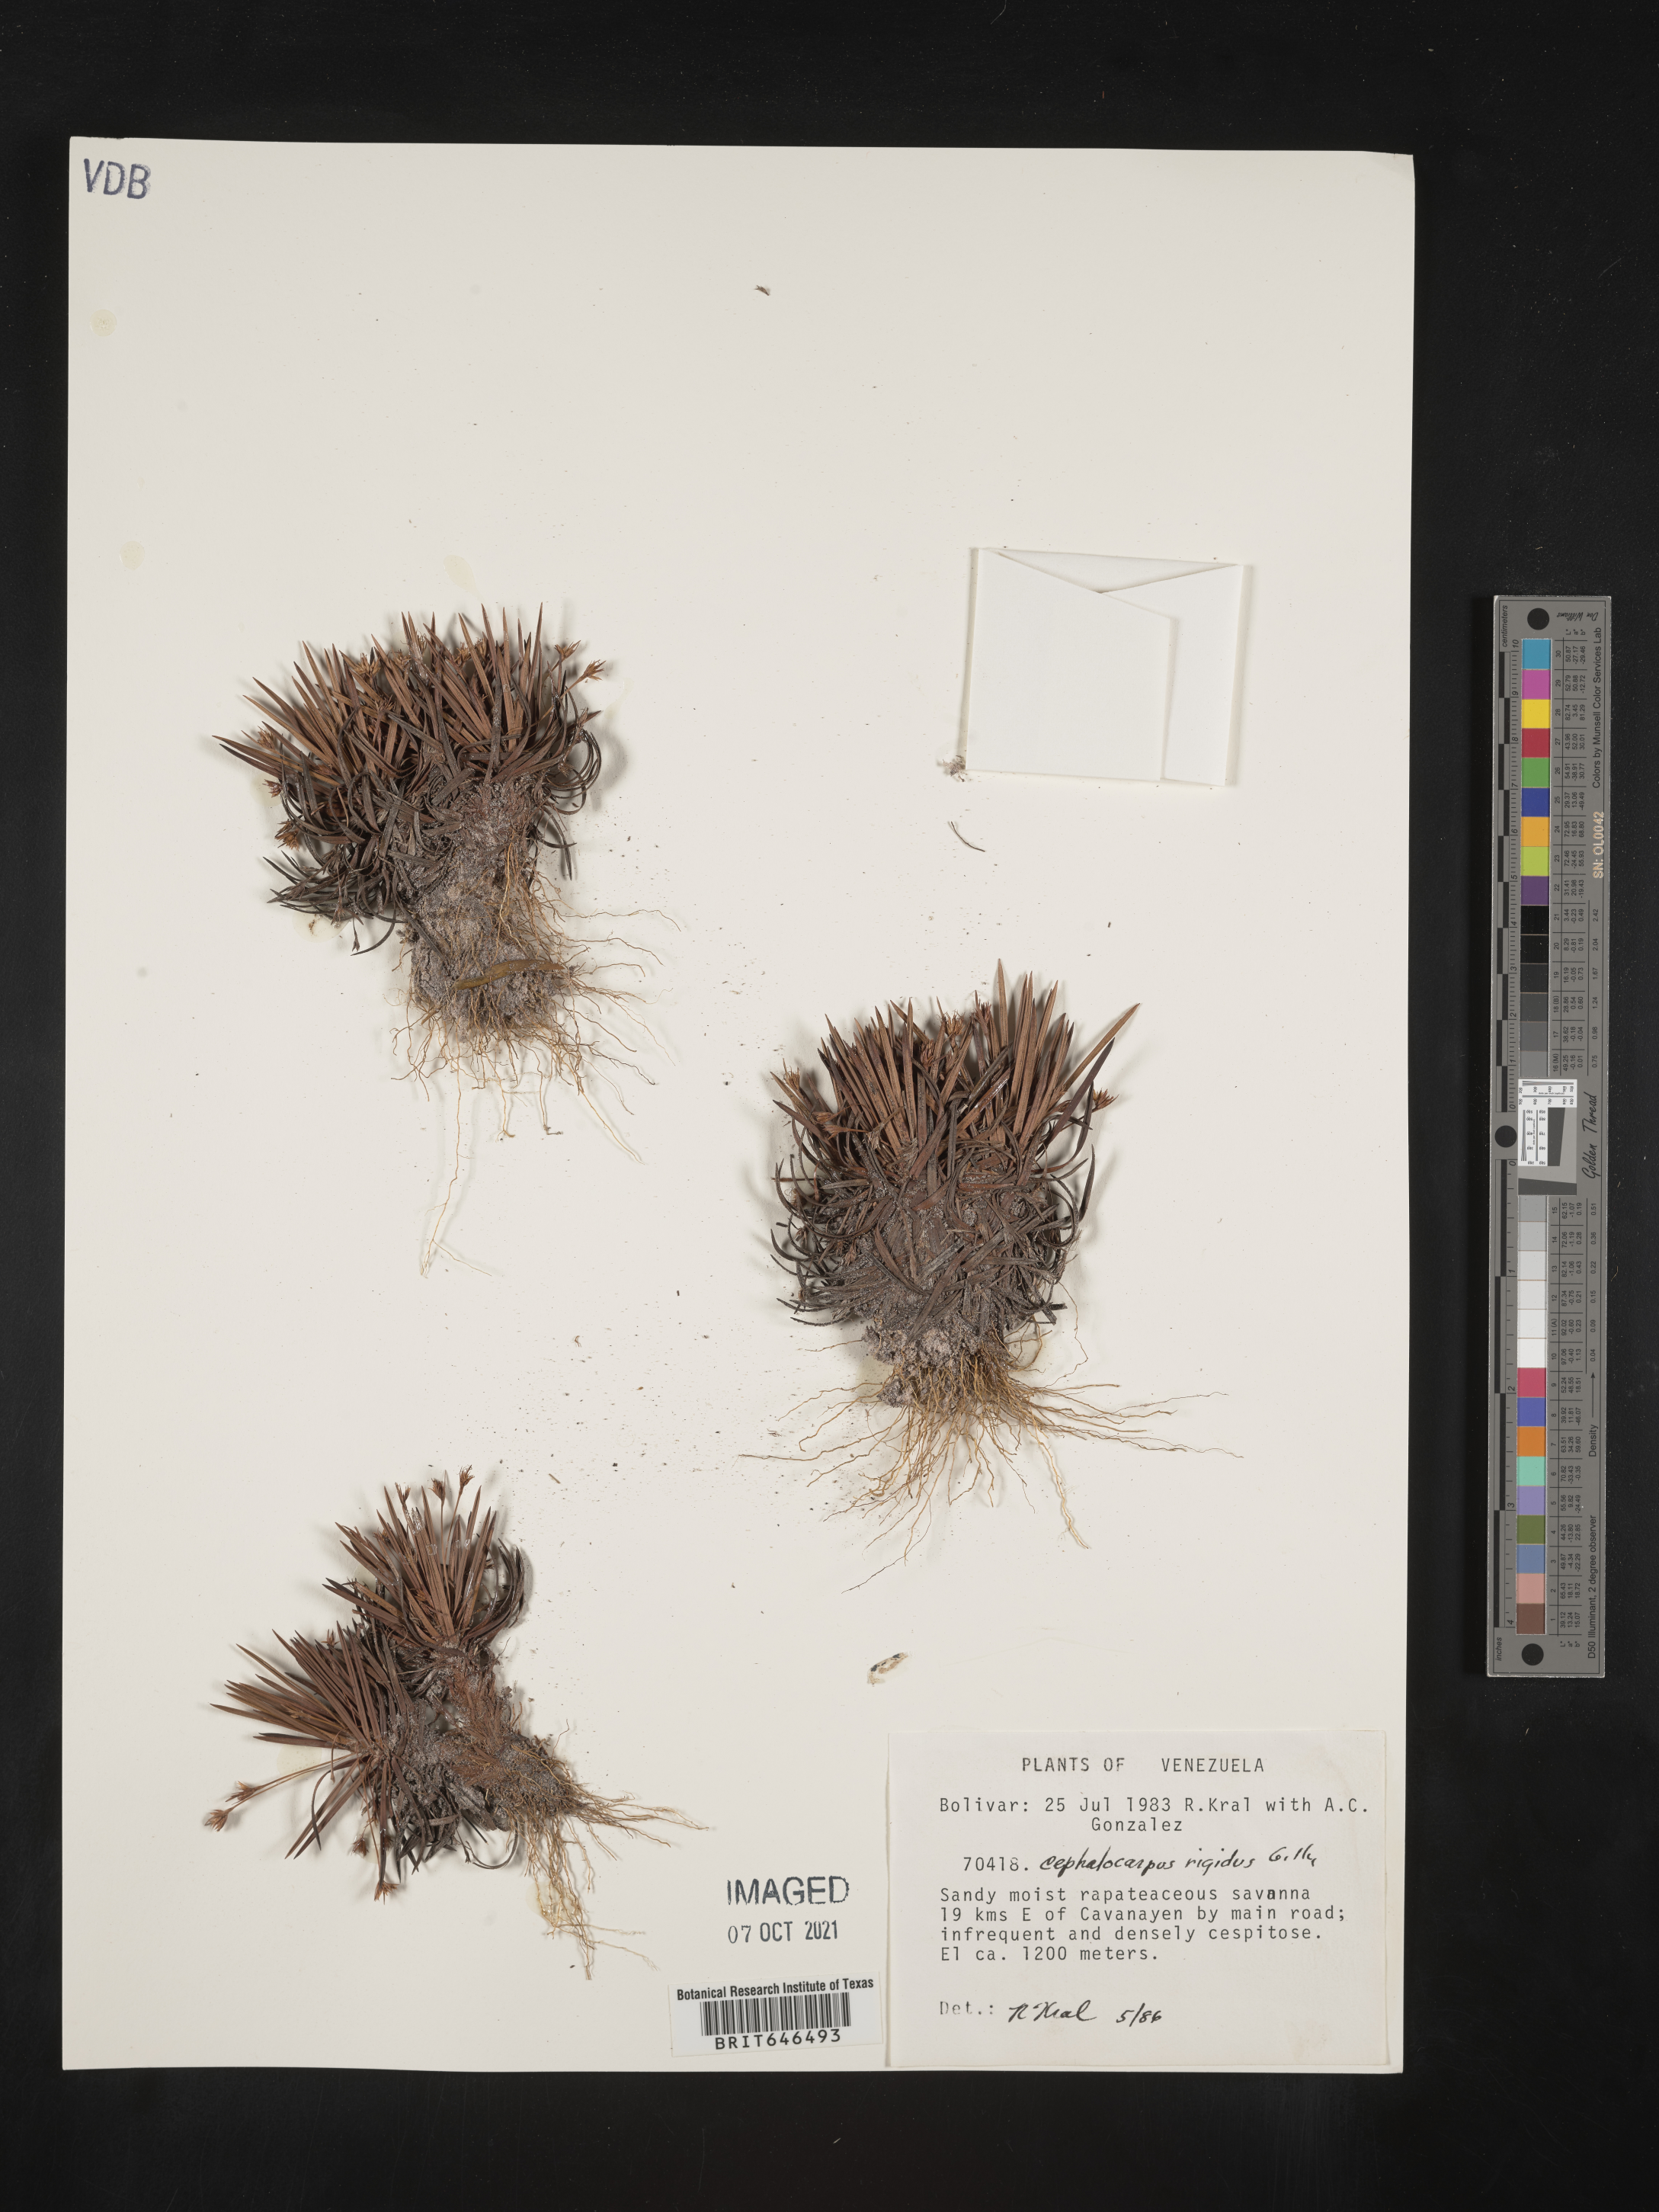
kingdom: Plantae
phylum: Tracheophyta
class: Liliopsida
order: Poales
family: Cyperaceae
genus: Cephalocarpus
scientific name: Cephalocarpus rigidus
